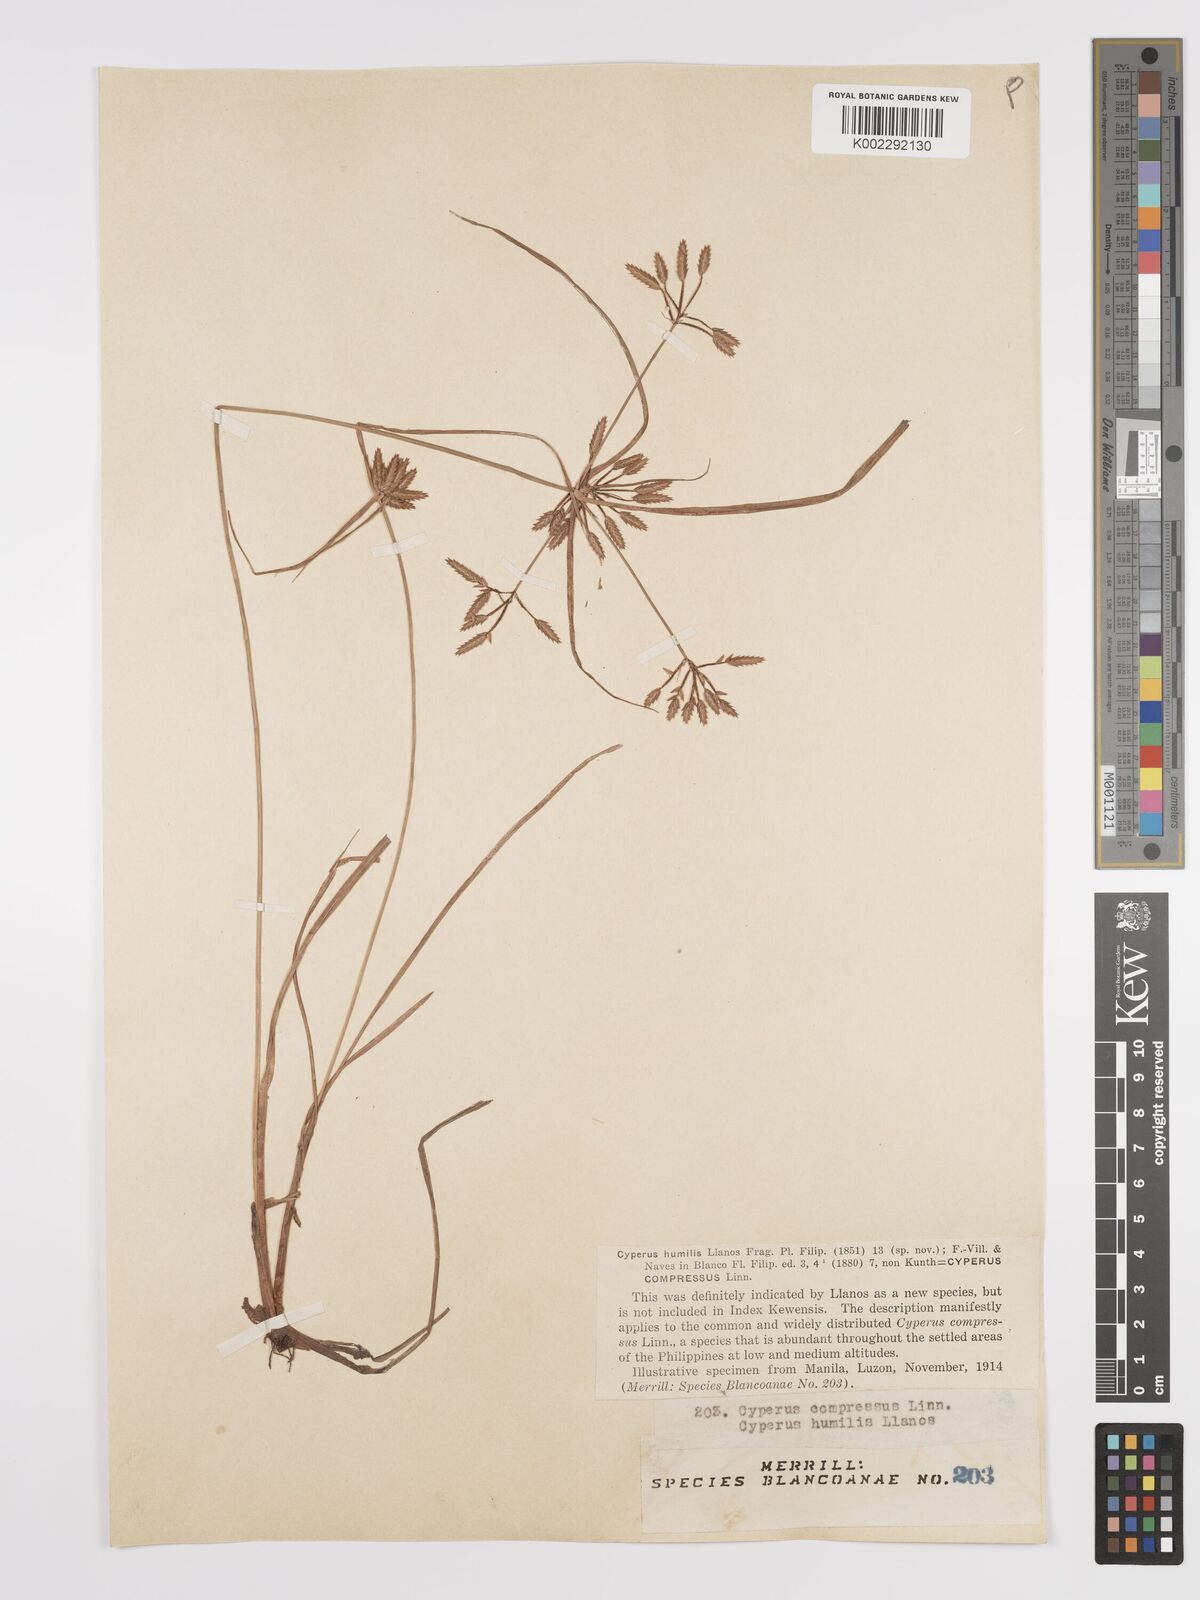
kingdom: Plantae
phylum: Tracheophyta
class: Liliopsida
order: Poales
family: Cyperaceae
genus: Cyperus
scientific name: Cyperus compressus
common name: Poorland flatsedge
